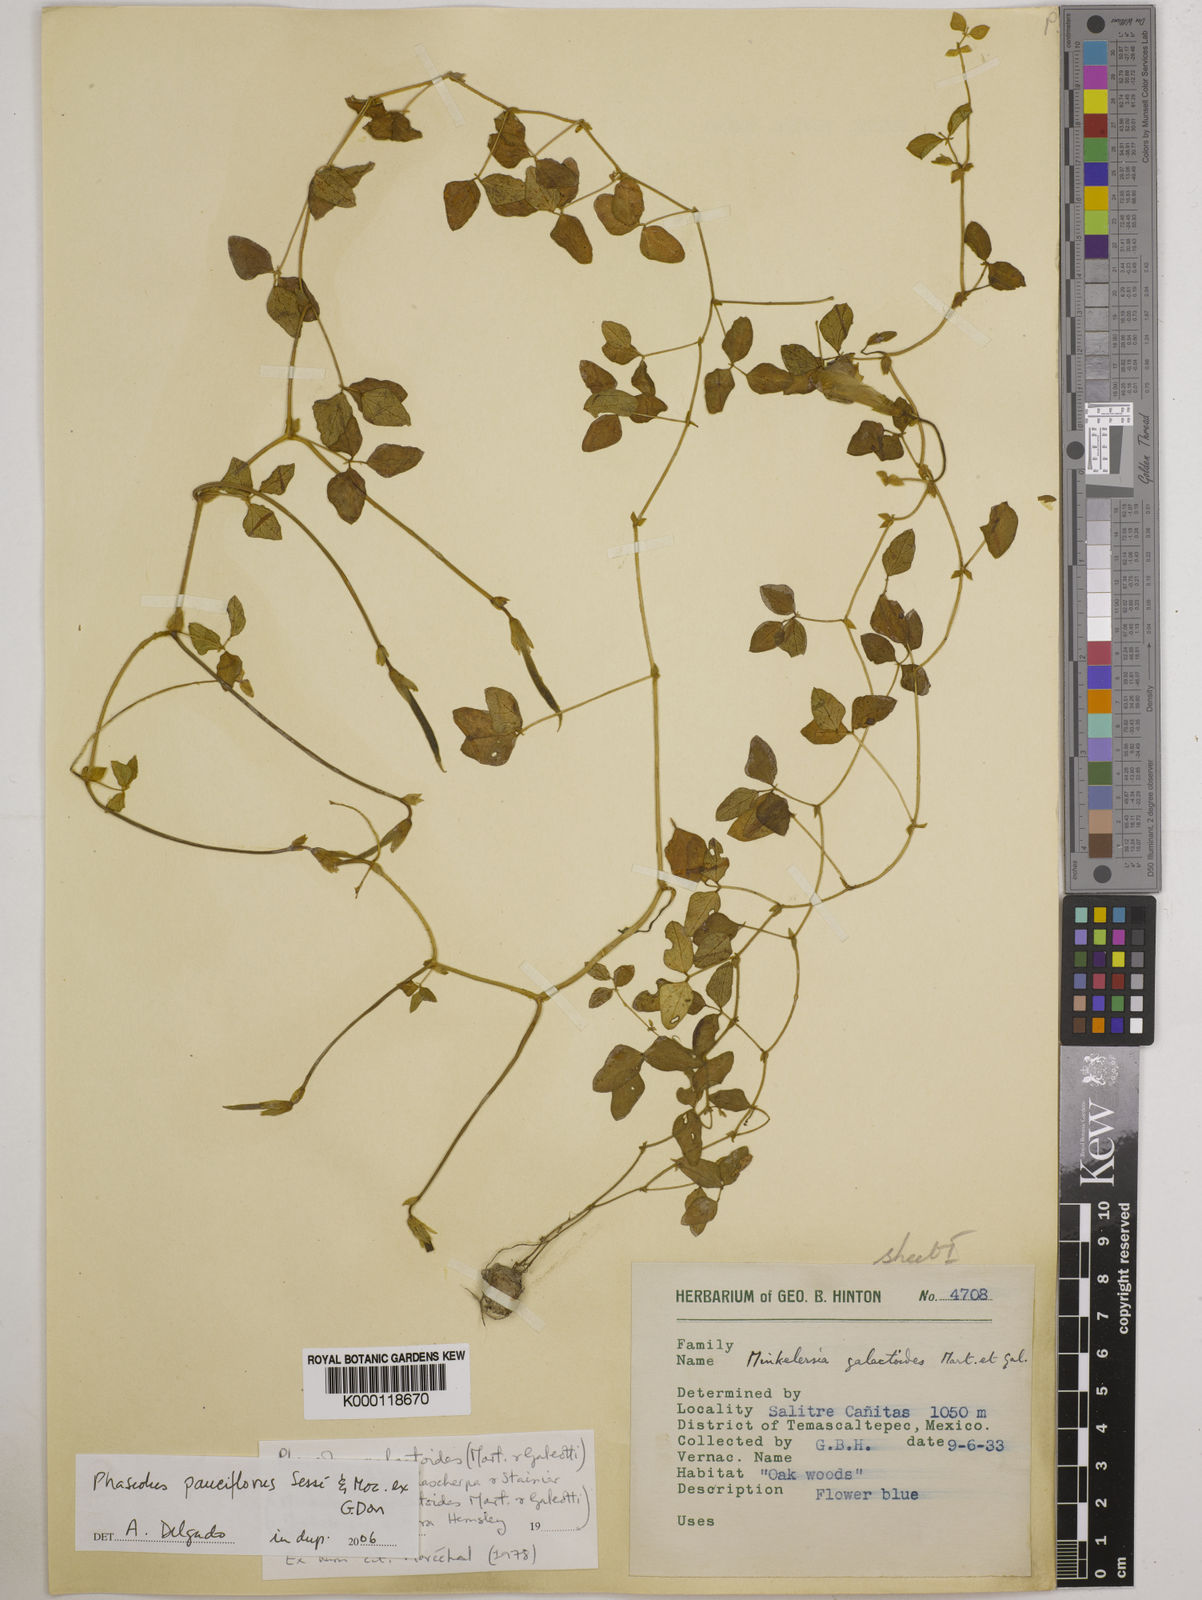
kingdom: Plantae
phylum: Tracheophyta
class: Magnoliopsida
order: Fabales
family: Fabaceae
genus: Phaseolus
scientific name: Phaseolus
